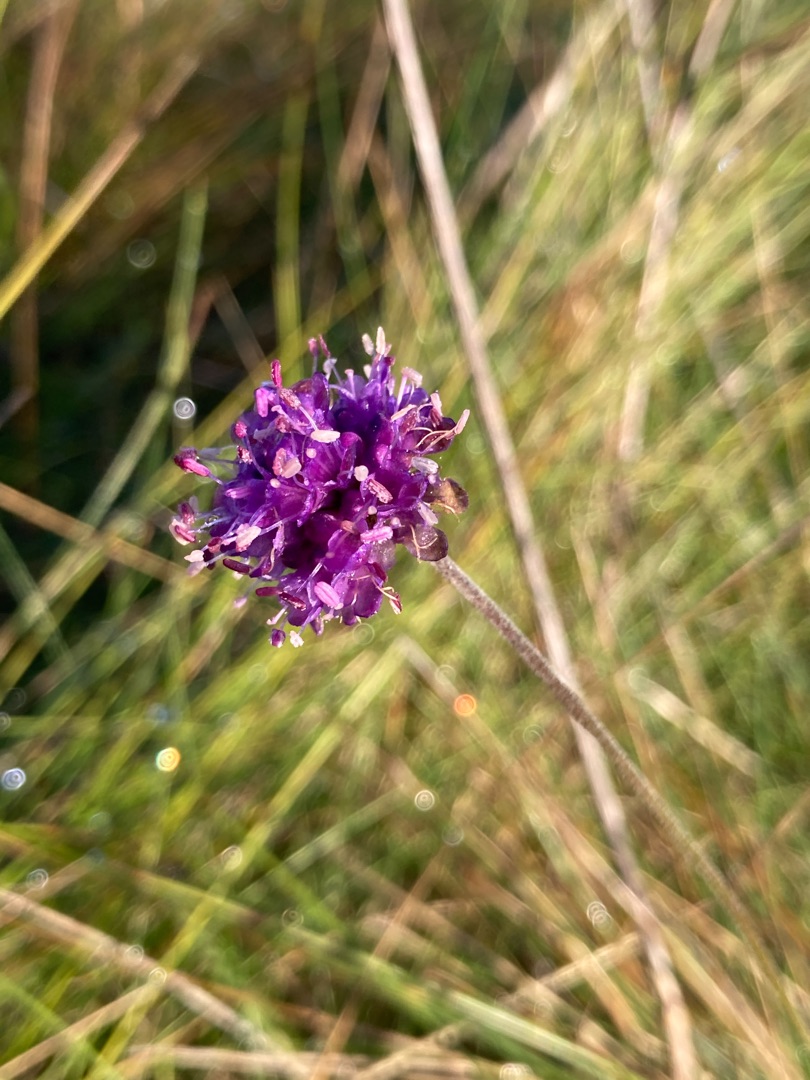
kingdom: Plantae
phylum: Tracheophyta
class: Magnoliopsida
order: Dipsacales
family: Caprifoliaceae
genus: Succisa
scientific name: Succisa pratensis
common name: Djævelsbid
